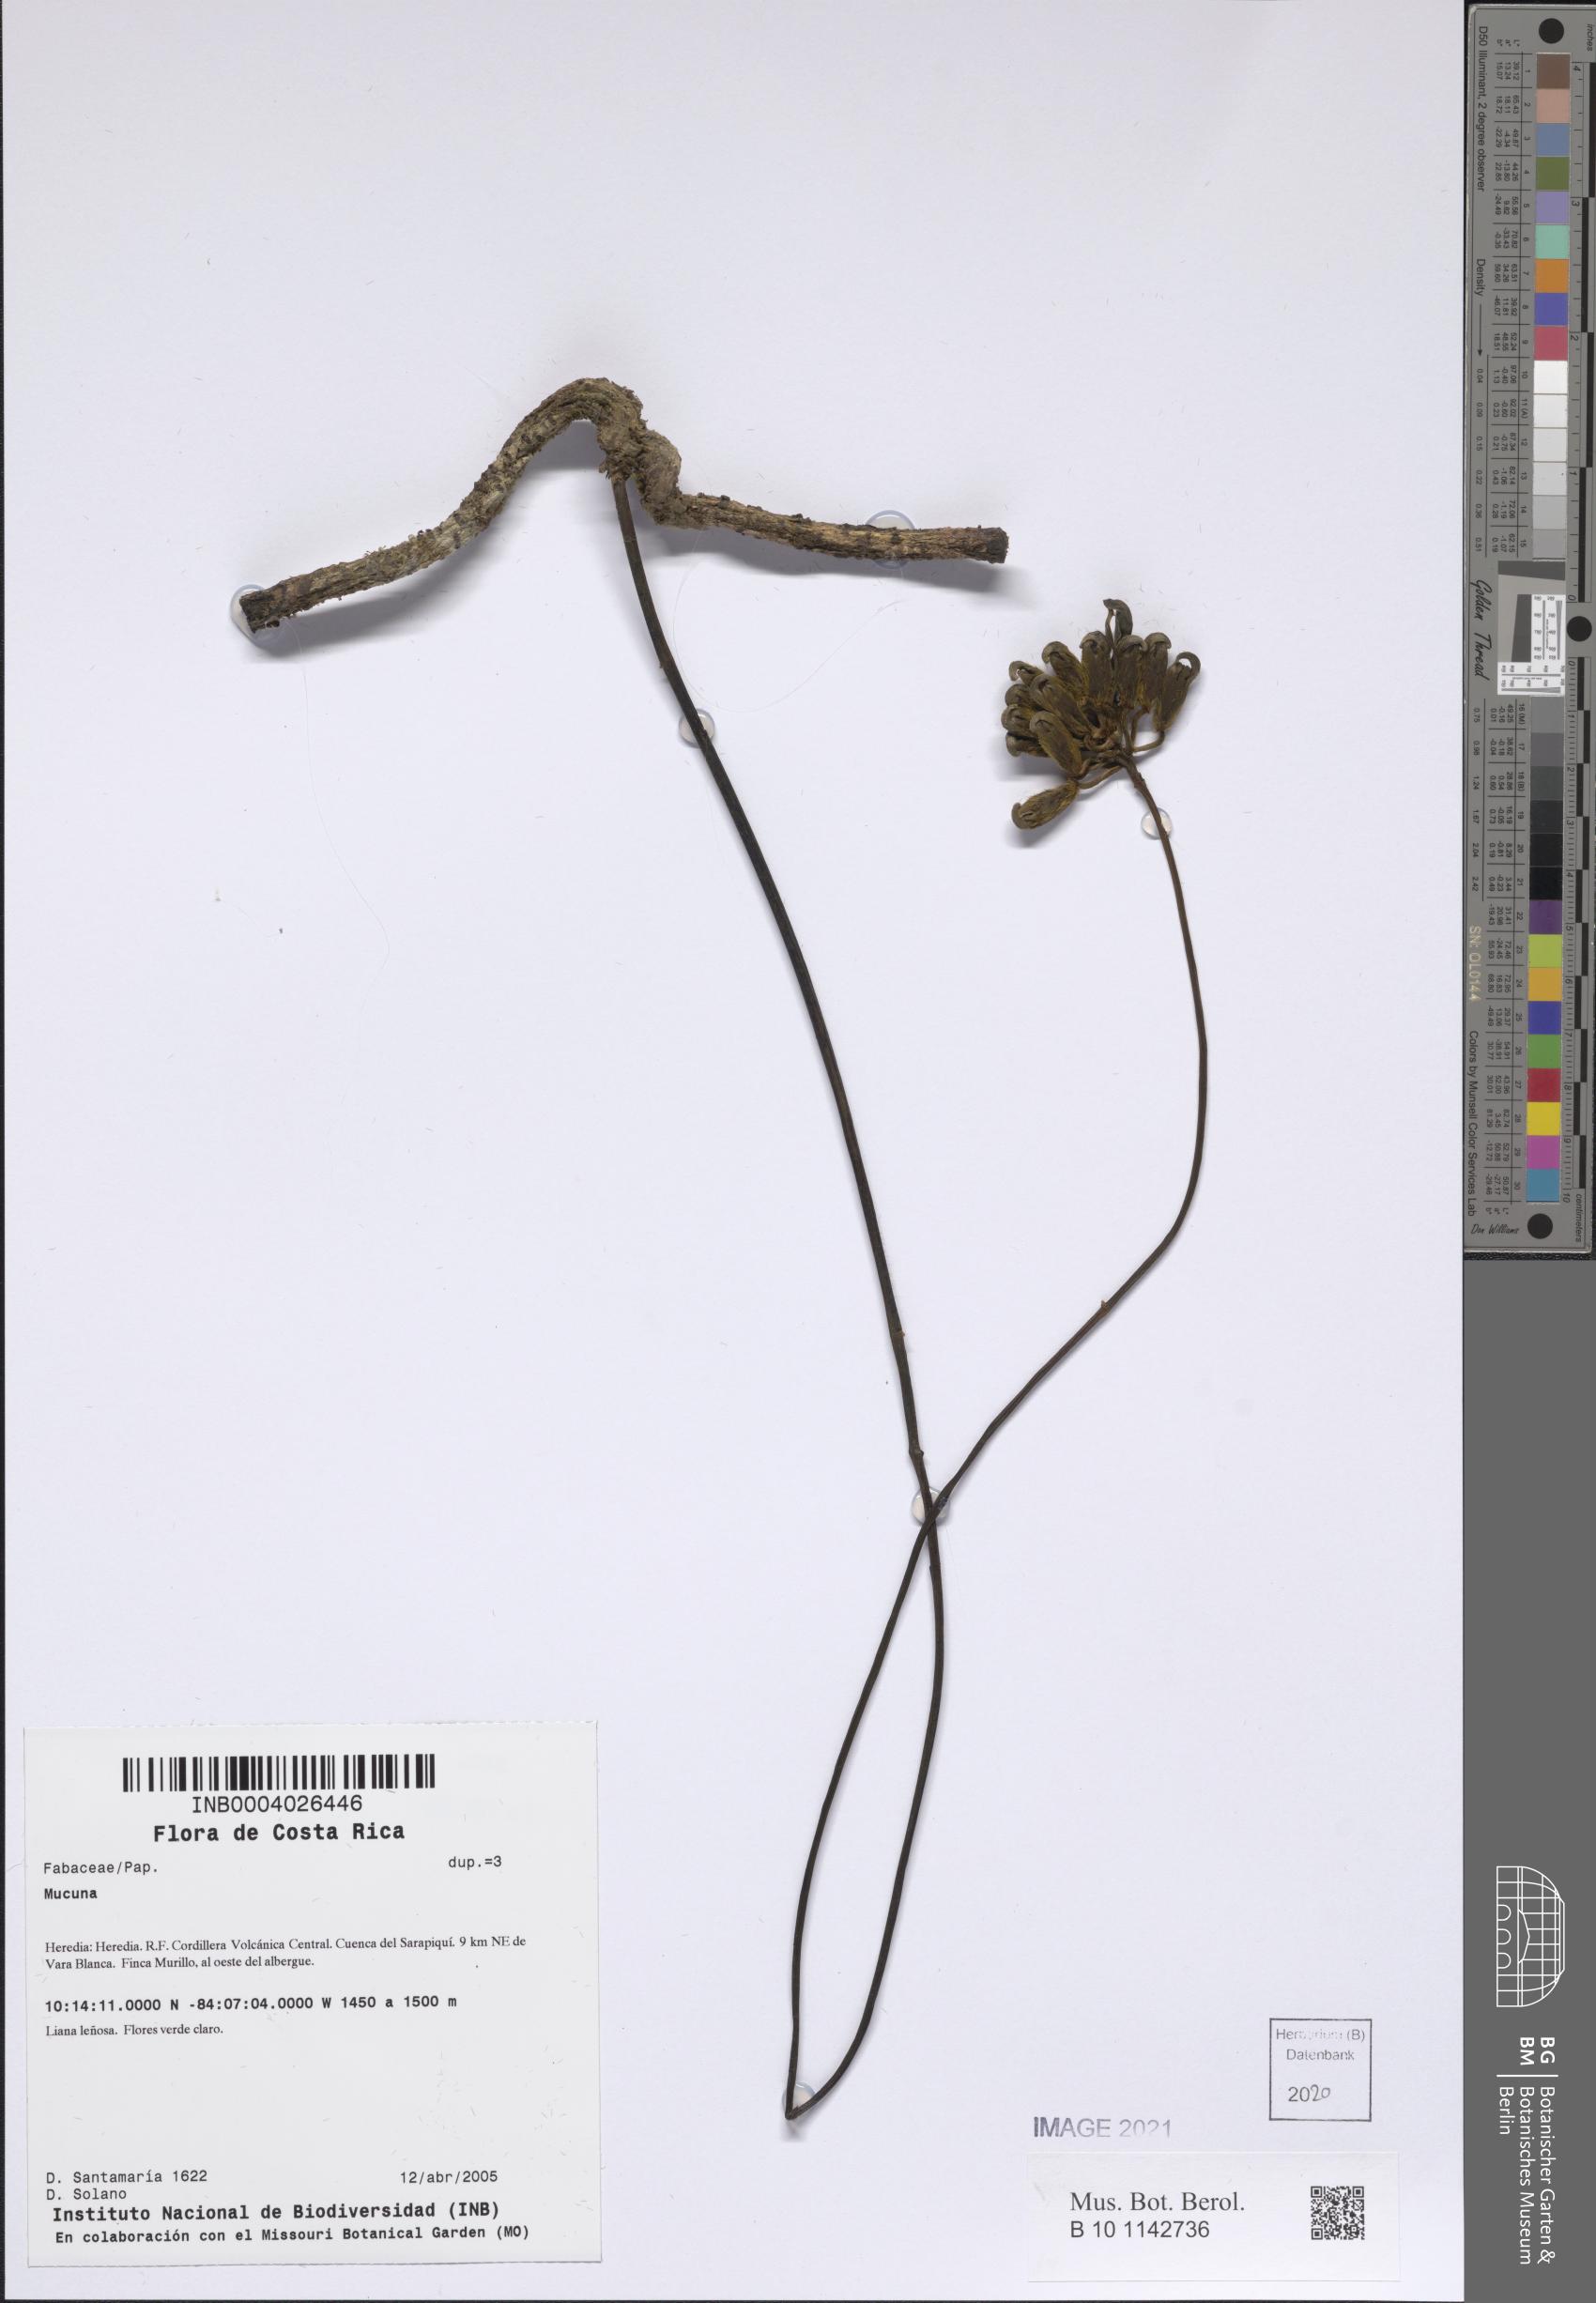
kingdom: Plantae
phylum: Tracheophyta
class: Magnoliopsida
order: Fabales
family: Fabaceae
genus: Mucuna
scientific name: Mucuna
